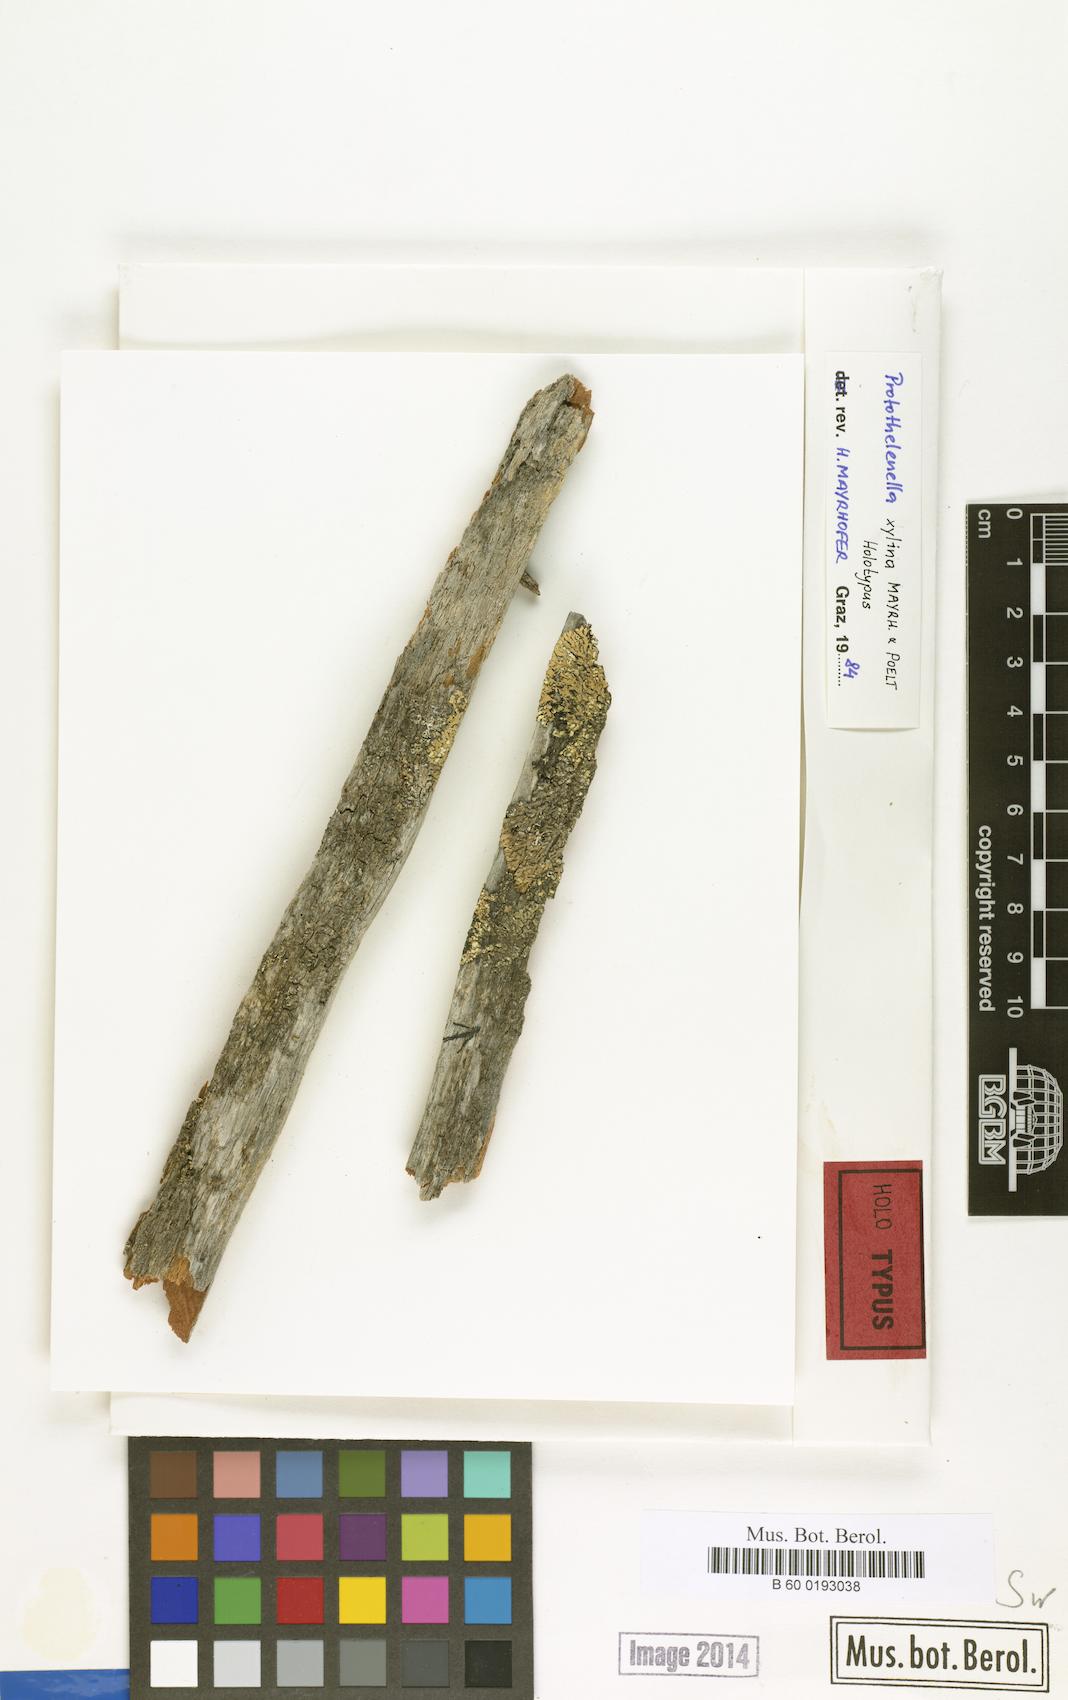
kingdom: Fungi
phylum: Ascomycota
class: Lecanoromycetes
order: Ostropales
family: Protothelenellaceae
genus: Protothelenella
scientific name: Protothelenella xylina
